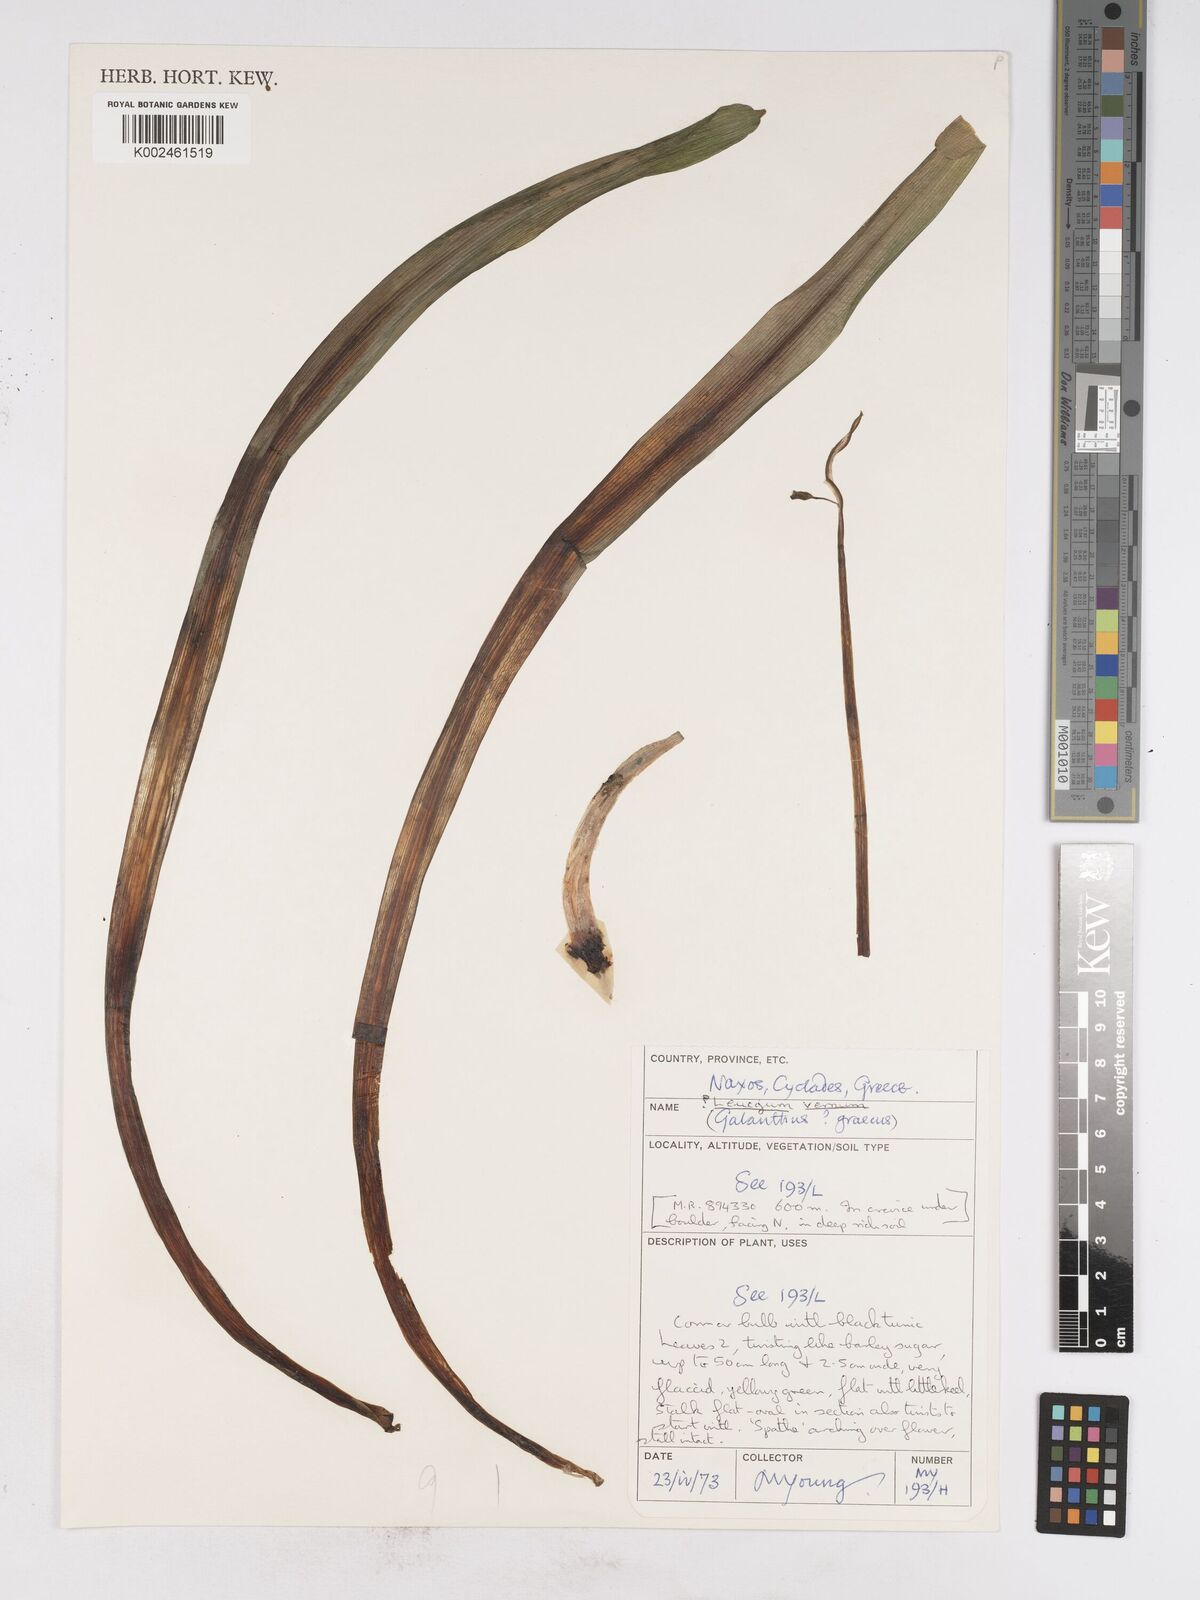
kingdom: Plantae
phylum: Tracheophyta
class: Liliopsida
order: Asparagales
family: Amaryllidaceae
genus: Leucojum
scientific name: Leucojum vernum
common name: Spring snowflake
